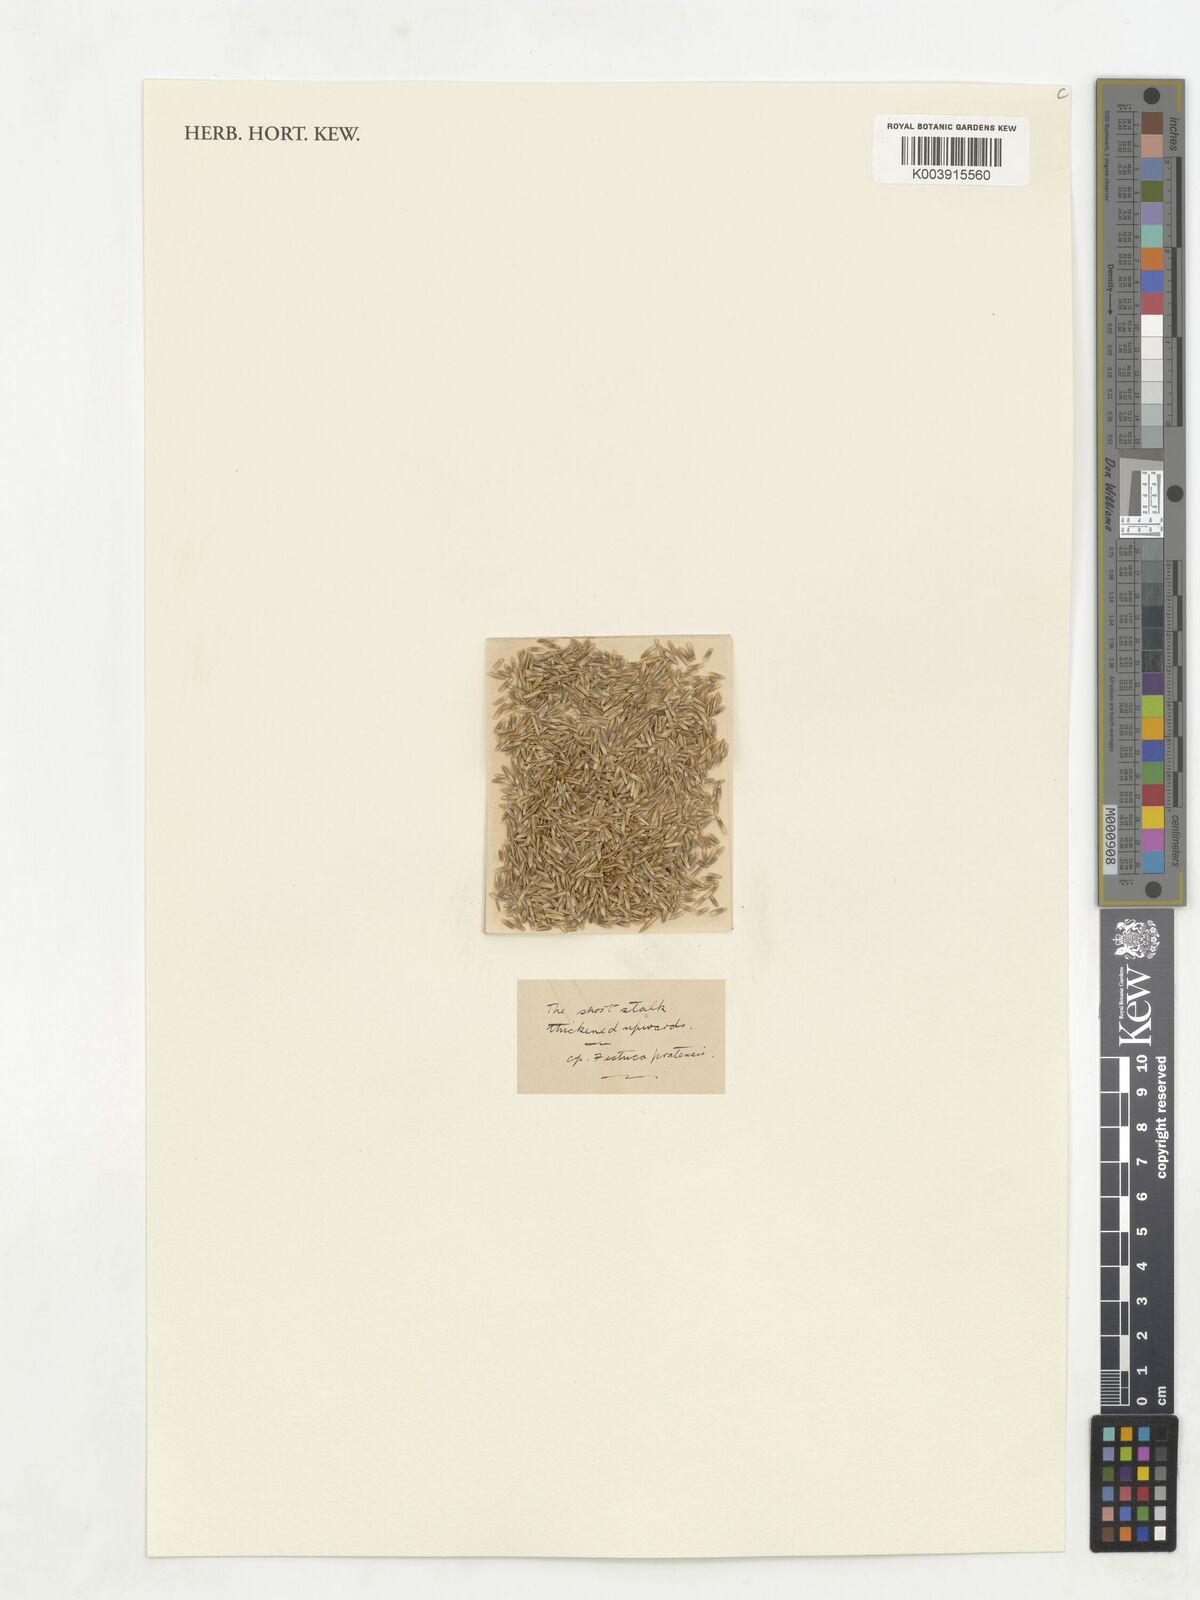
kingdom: Plantae
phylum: Tracheophyta
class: Liliopsida
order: Poales
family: Poaceae
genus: Lolium
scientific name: Lolium perenne
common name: Perennial ryegrass
